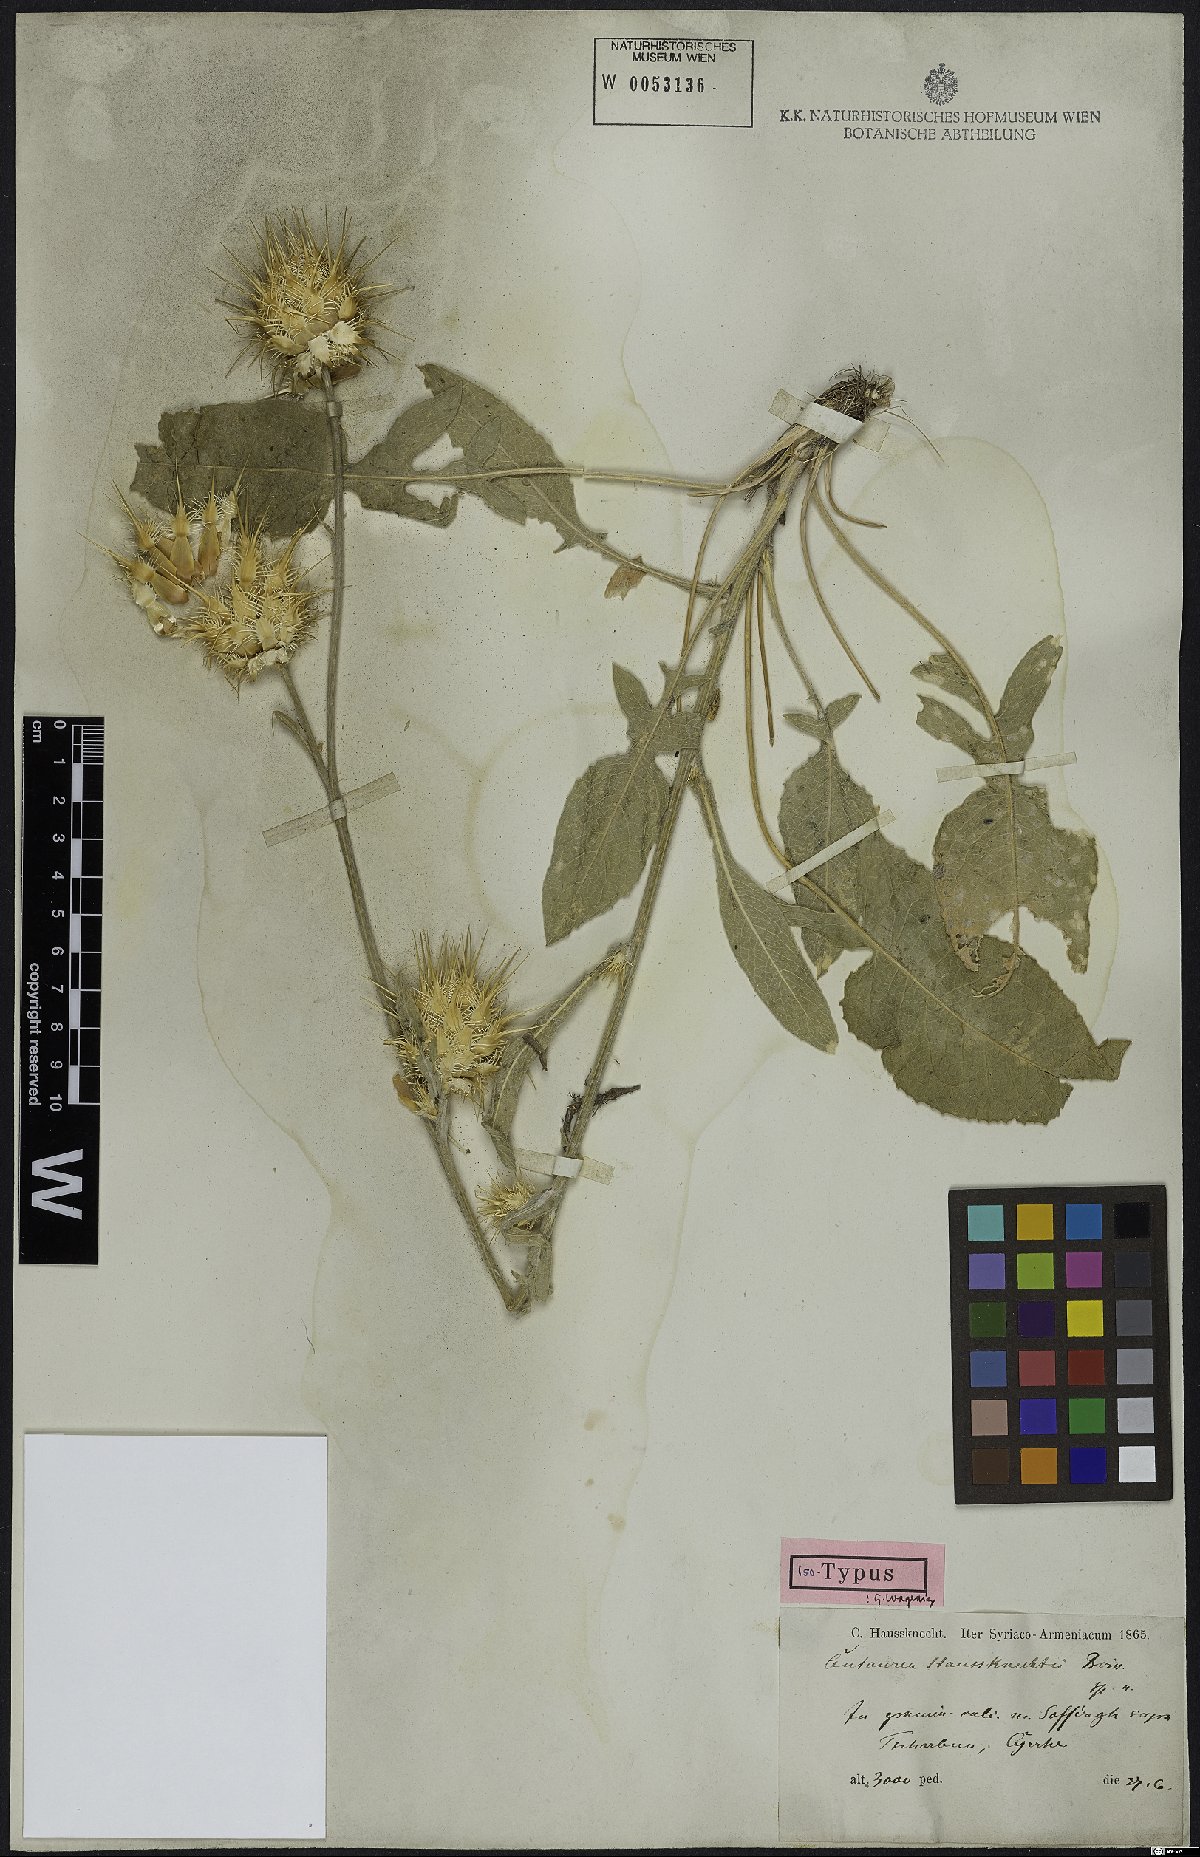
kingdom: Plantae
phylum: Tracheophyta
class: Magnoliopsida
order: Asterales
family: Asteraceae
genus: Centaurea
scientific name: Centaurea haussknechtii
